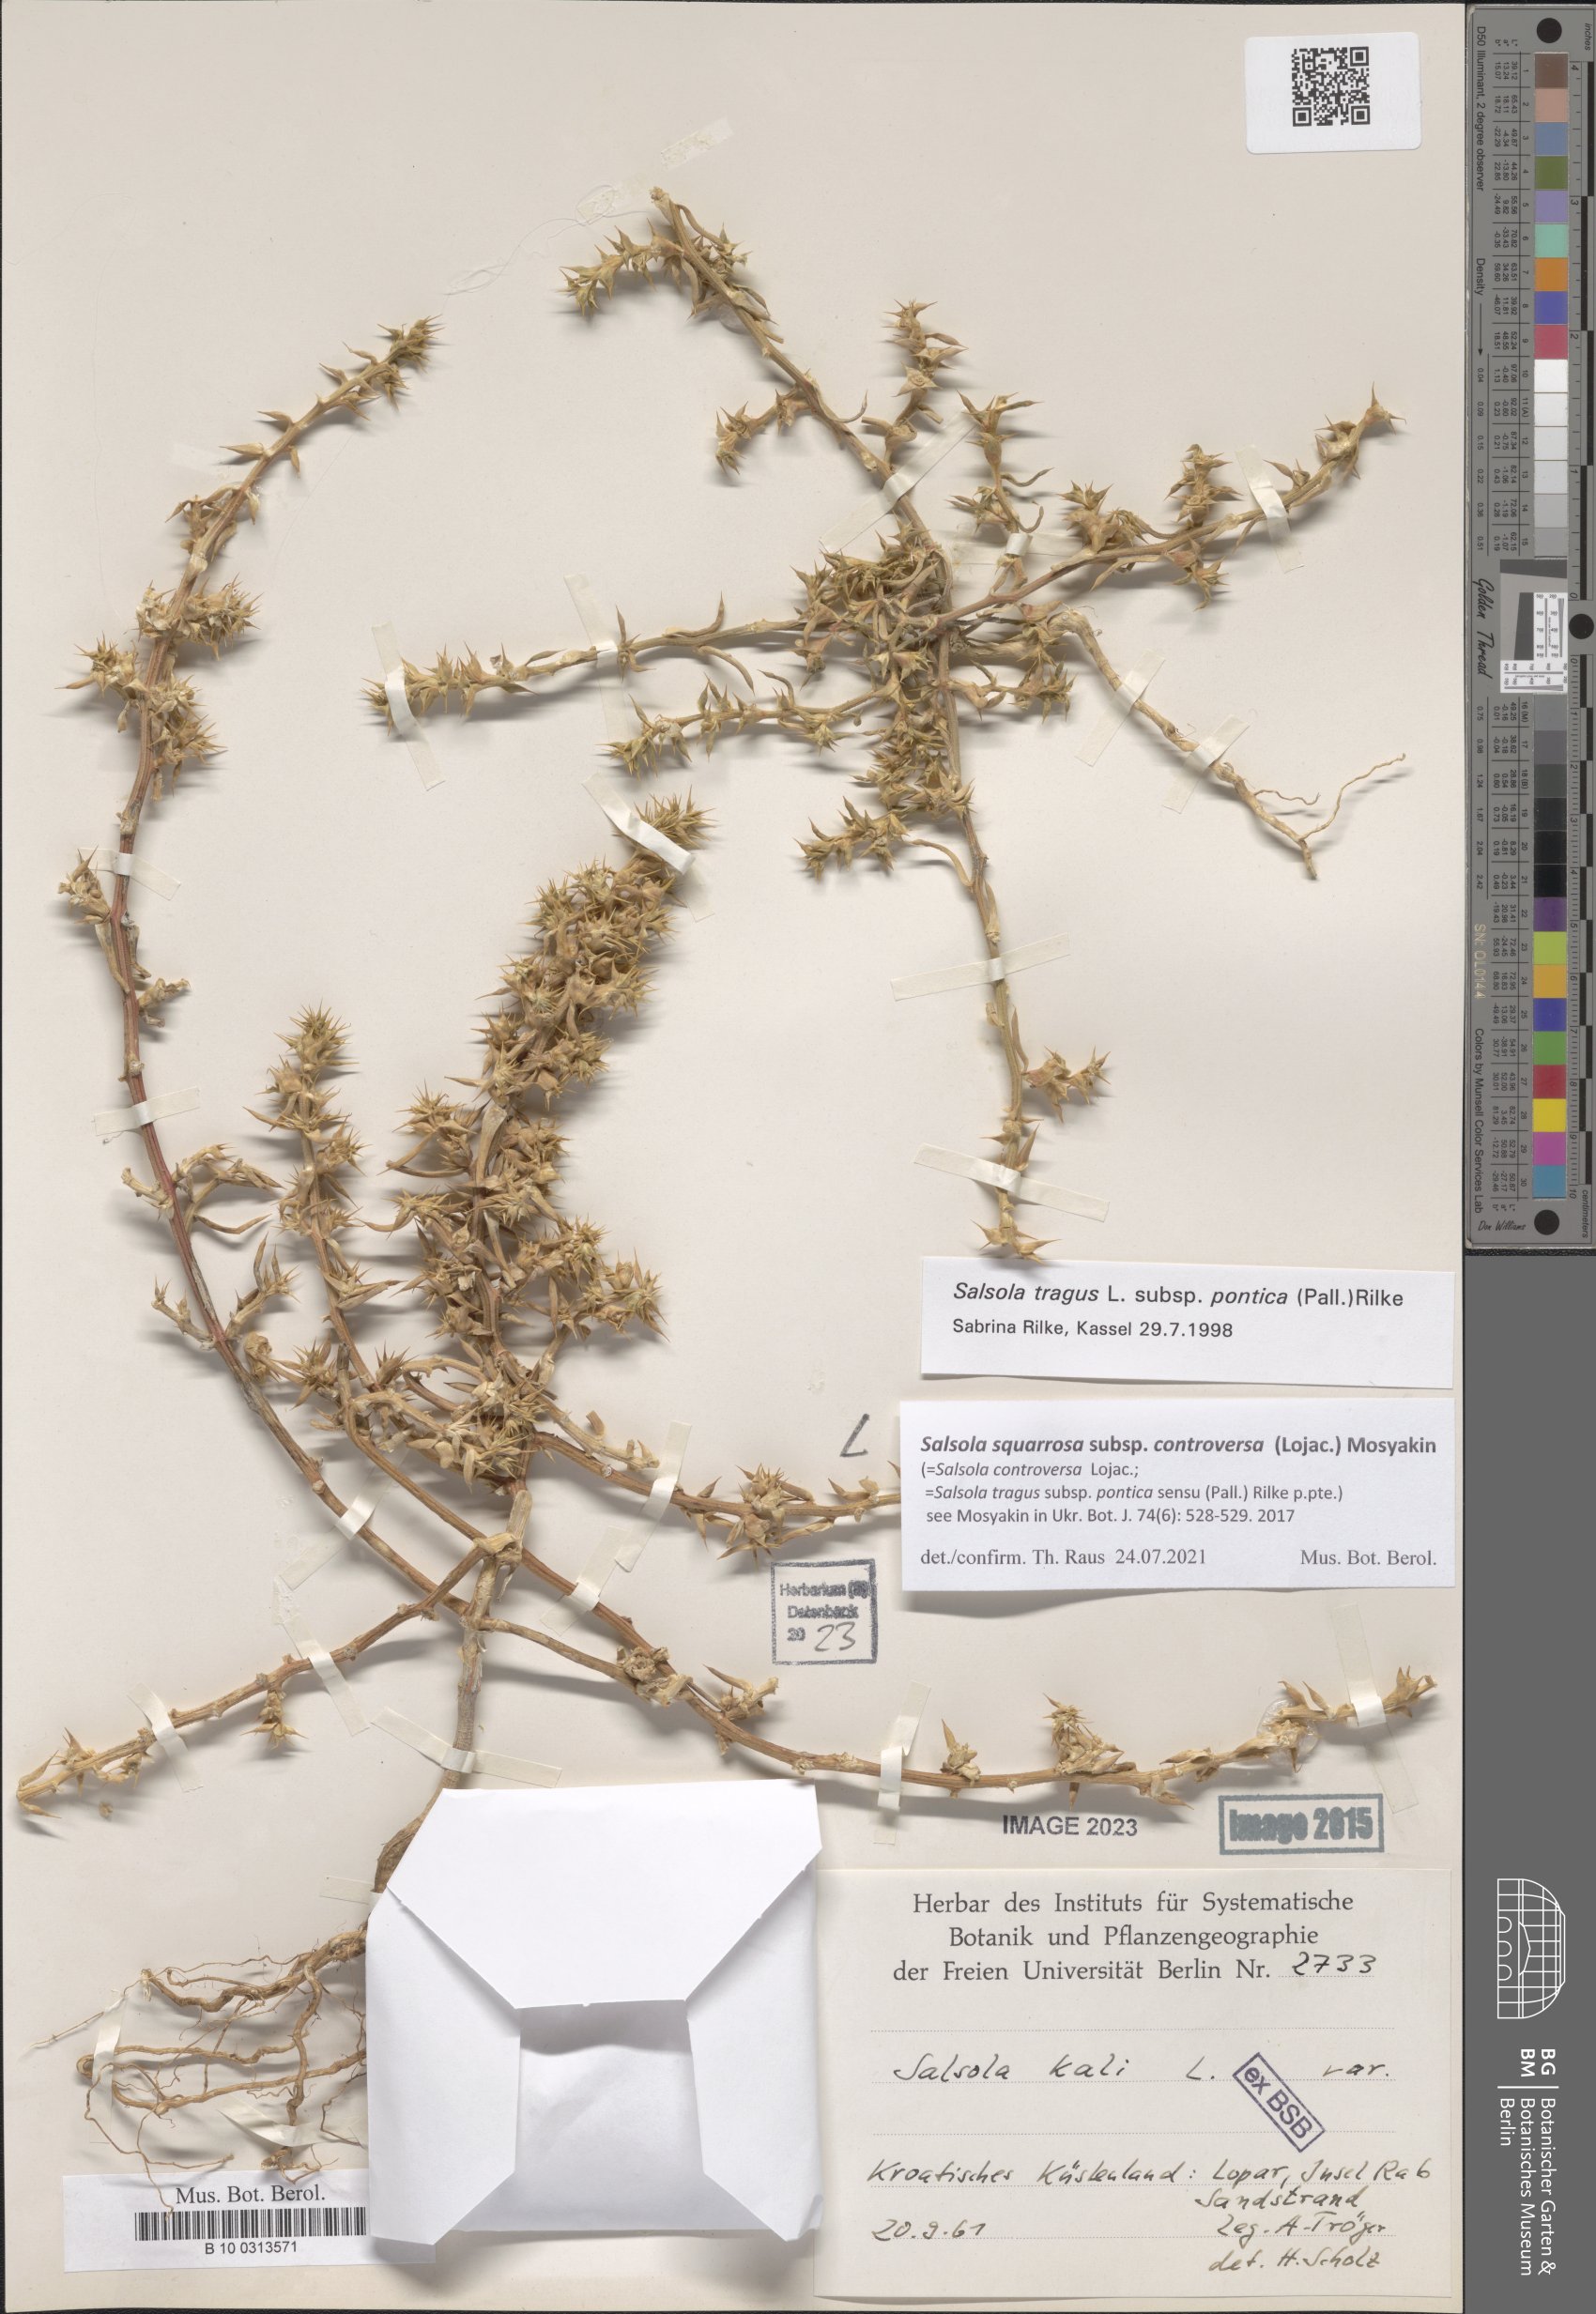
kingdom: Plantae
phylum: Tracheophyta
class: Magnoliopsida
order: Caryophyllales
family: Amaranthaceae
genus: Salsola
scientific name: Salsola squarrosa
